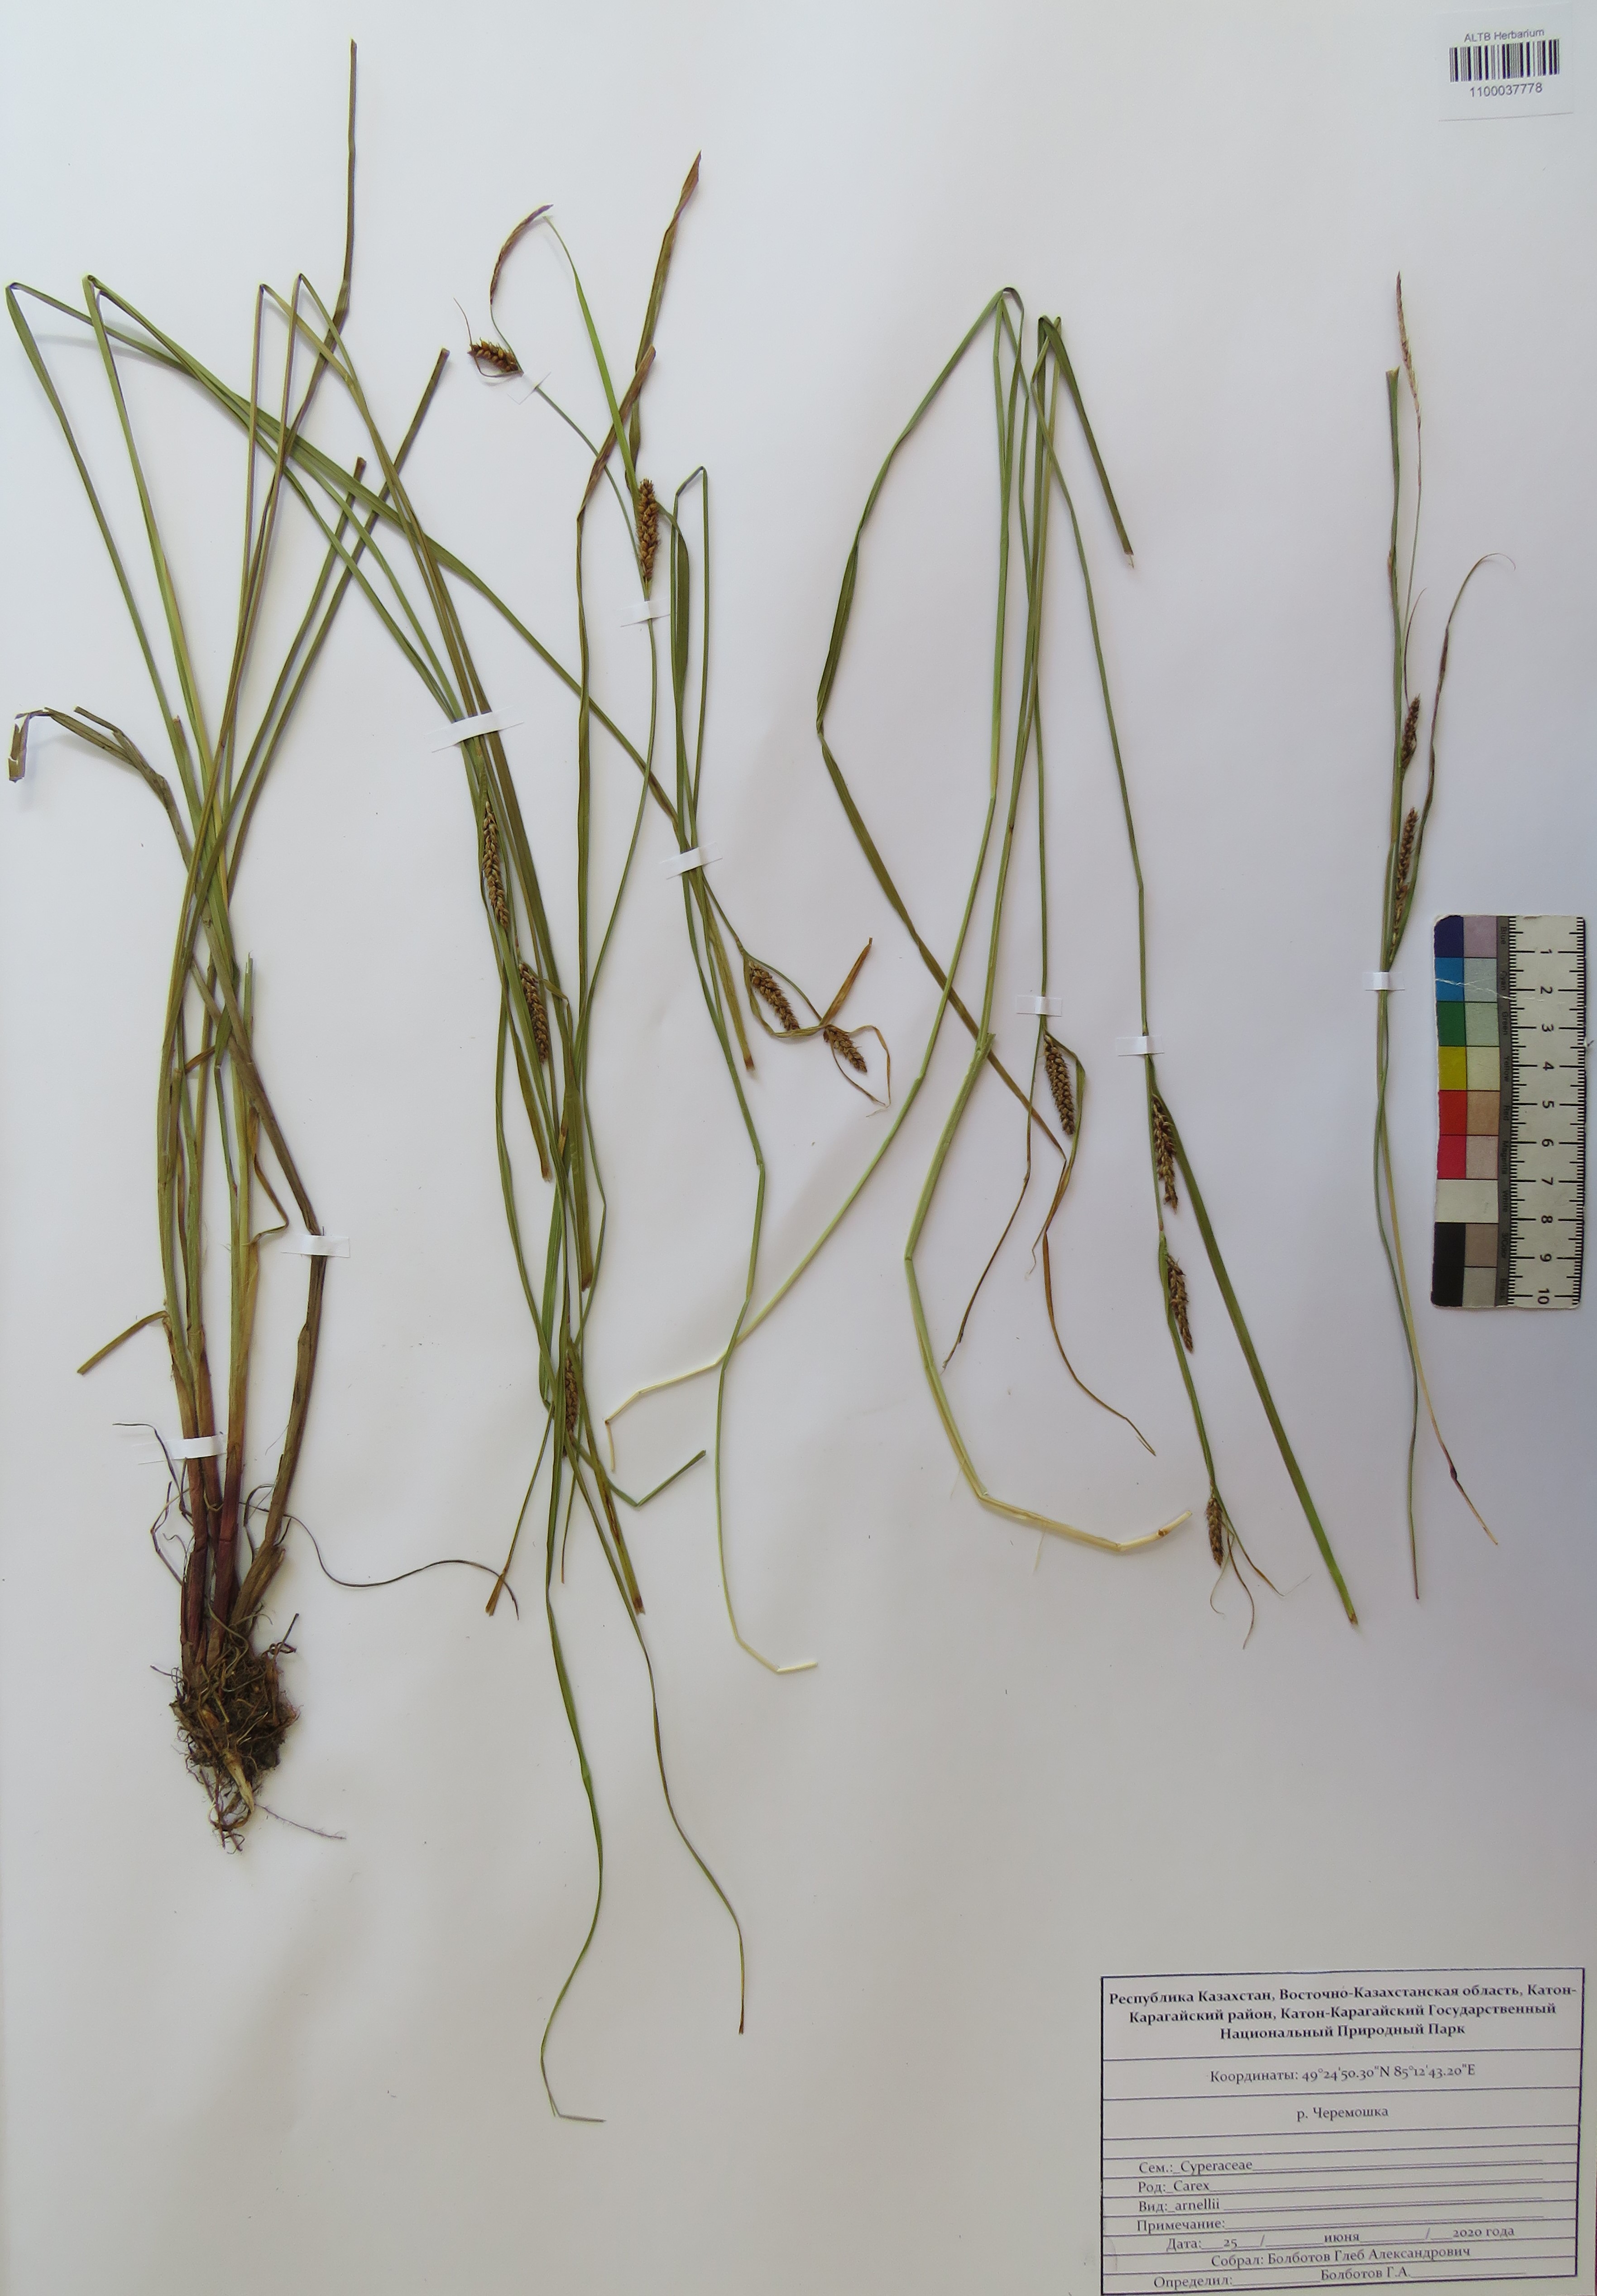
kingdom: Plantae
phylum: Tracheophyta
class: Liliopsida
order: Poales
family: Cyperaceae
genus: Carex
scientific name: Carex arnellii
